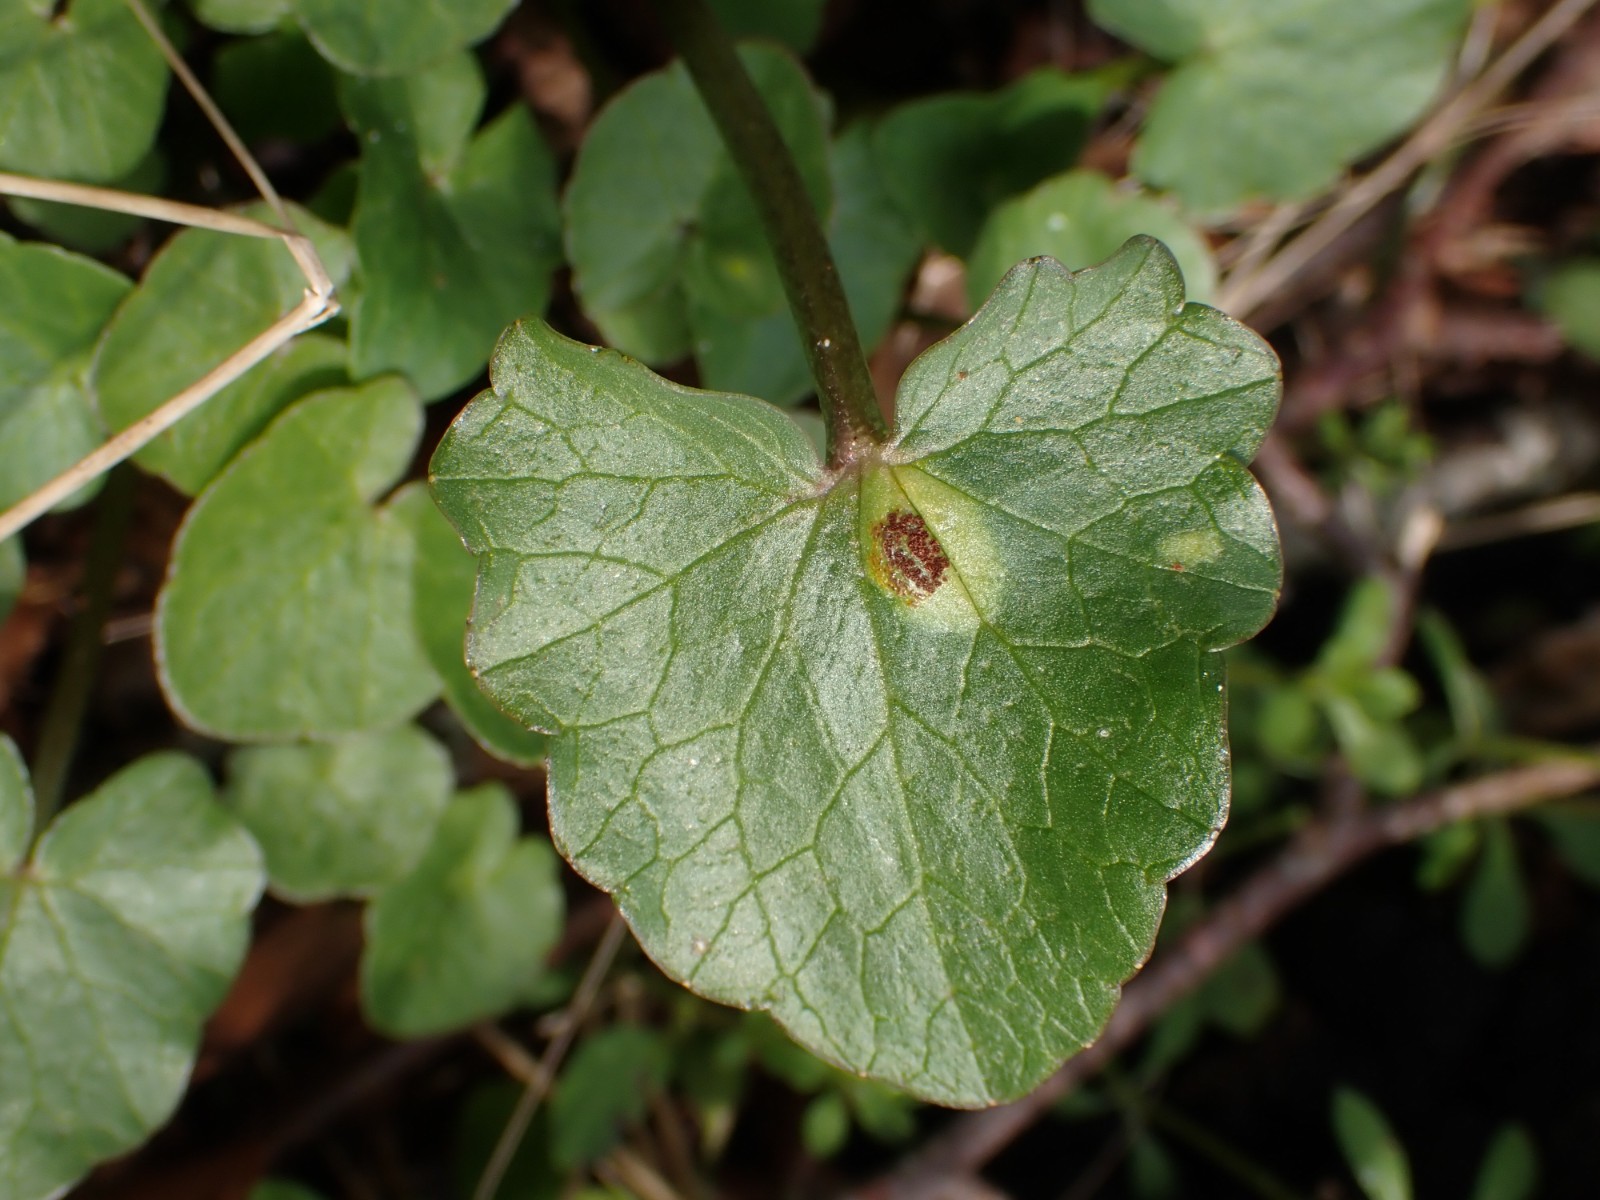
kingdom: Fungi
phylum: Basidiomycota
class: Pucciniomycetes
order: Pucciniales
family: Pucciniaceae
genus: Uromyces
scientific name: Uromyces ficariae
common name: vorterod-encellerust
